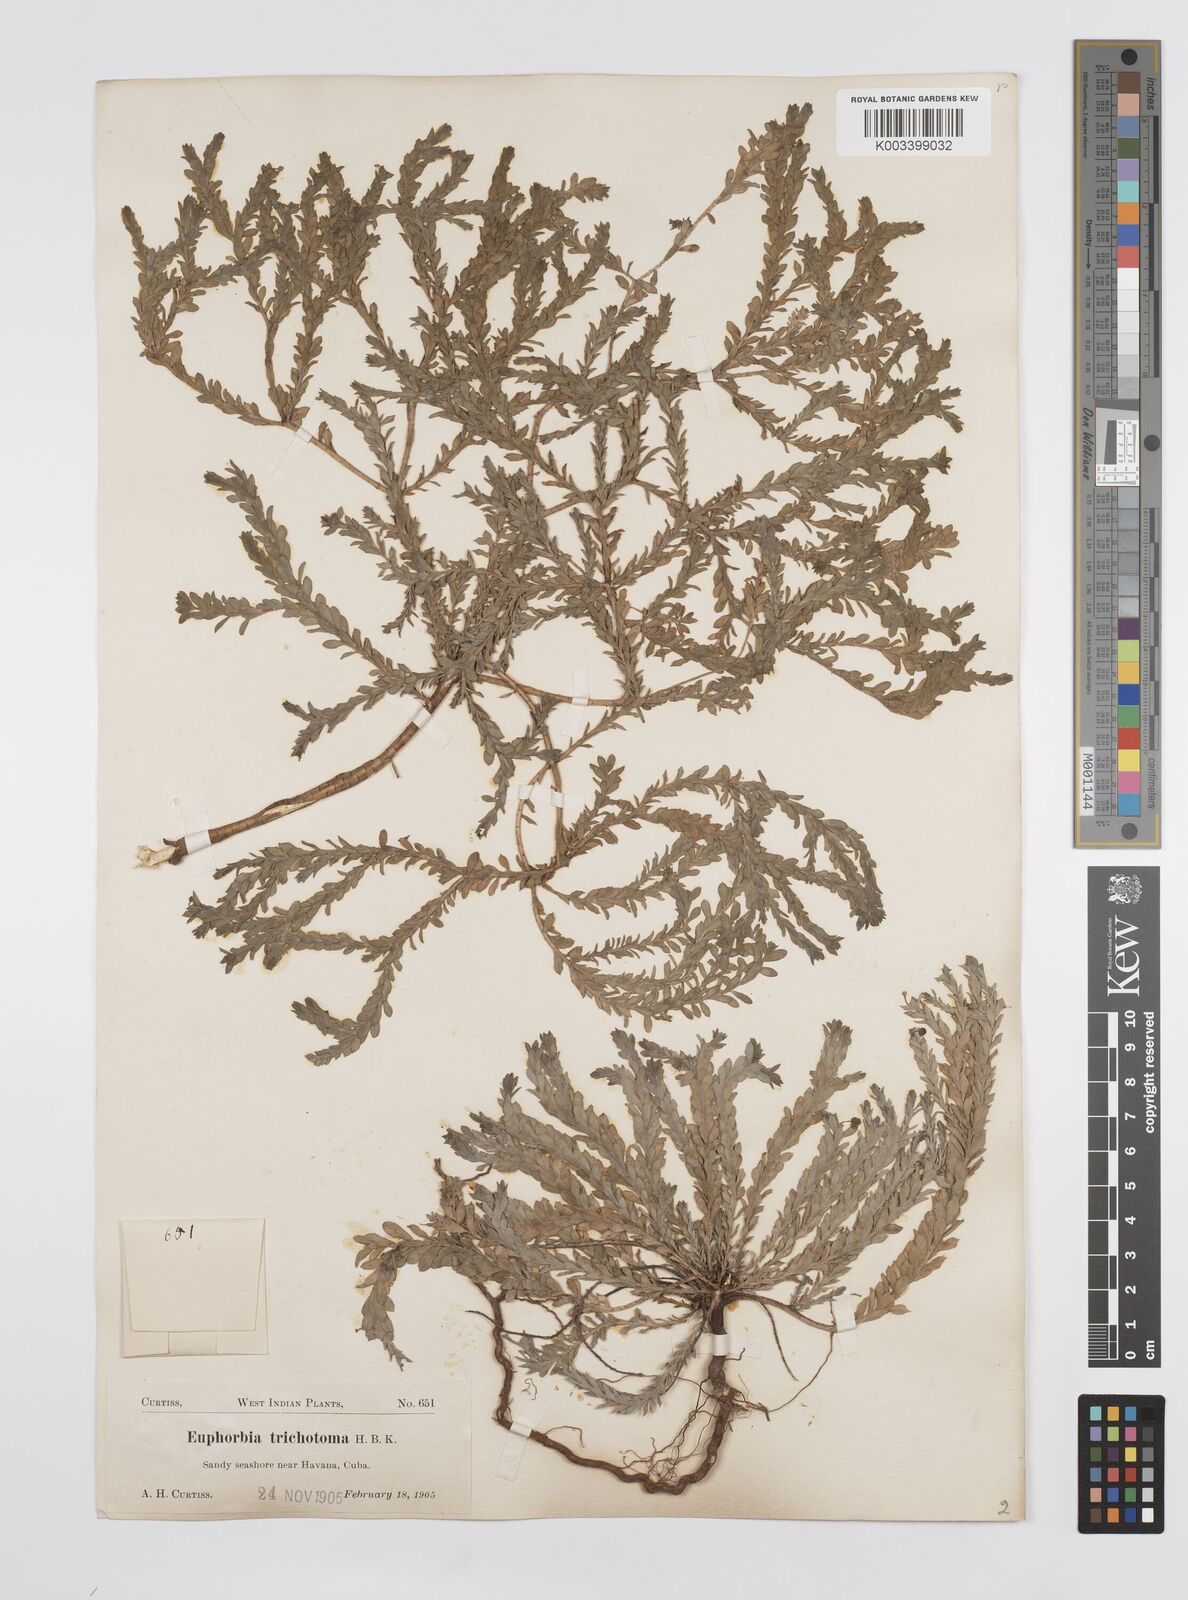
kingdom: Plantae
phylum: Tracheophyta
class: Magnoliopsida
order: Malpighiales
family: Euphorbiaceae
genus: Euphorbia
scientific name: Euphorbia trichotoma
